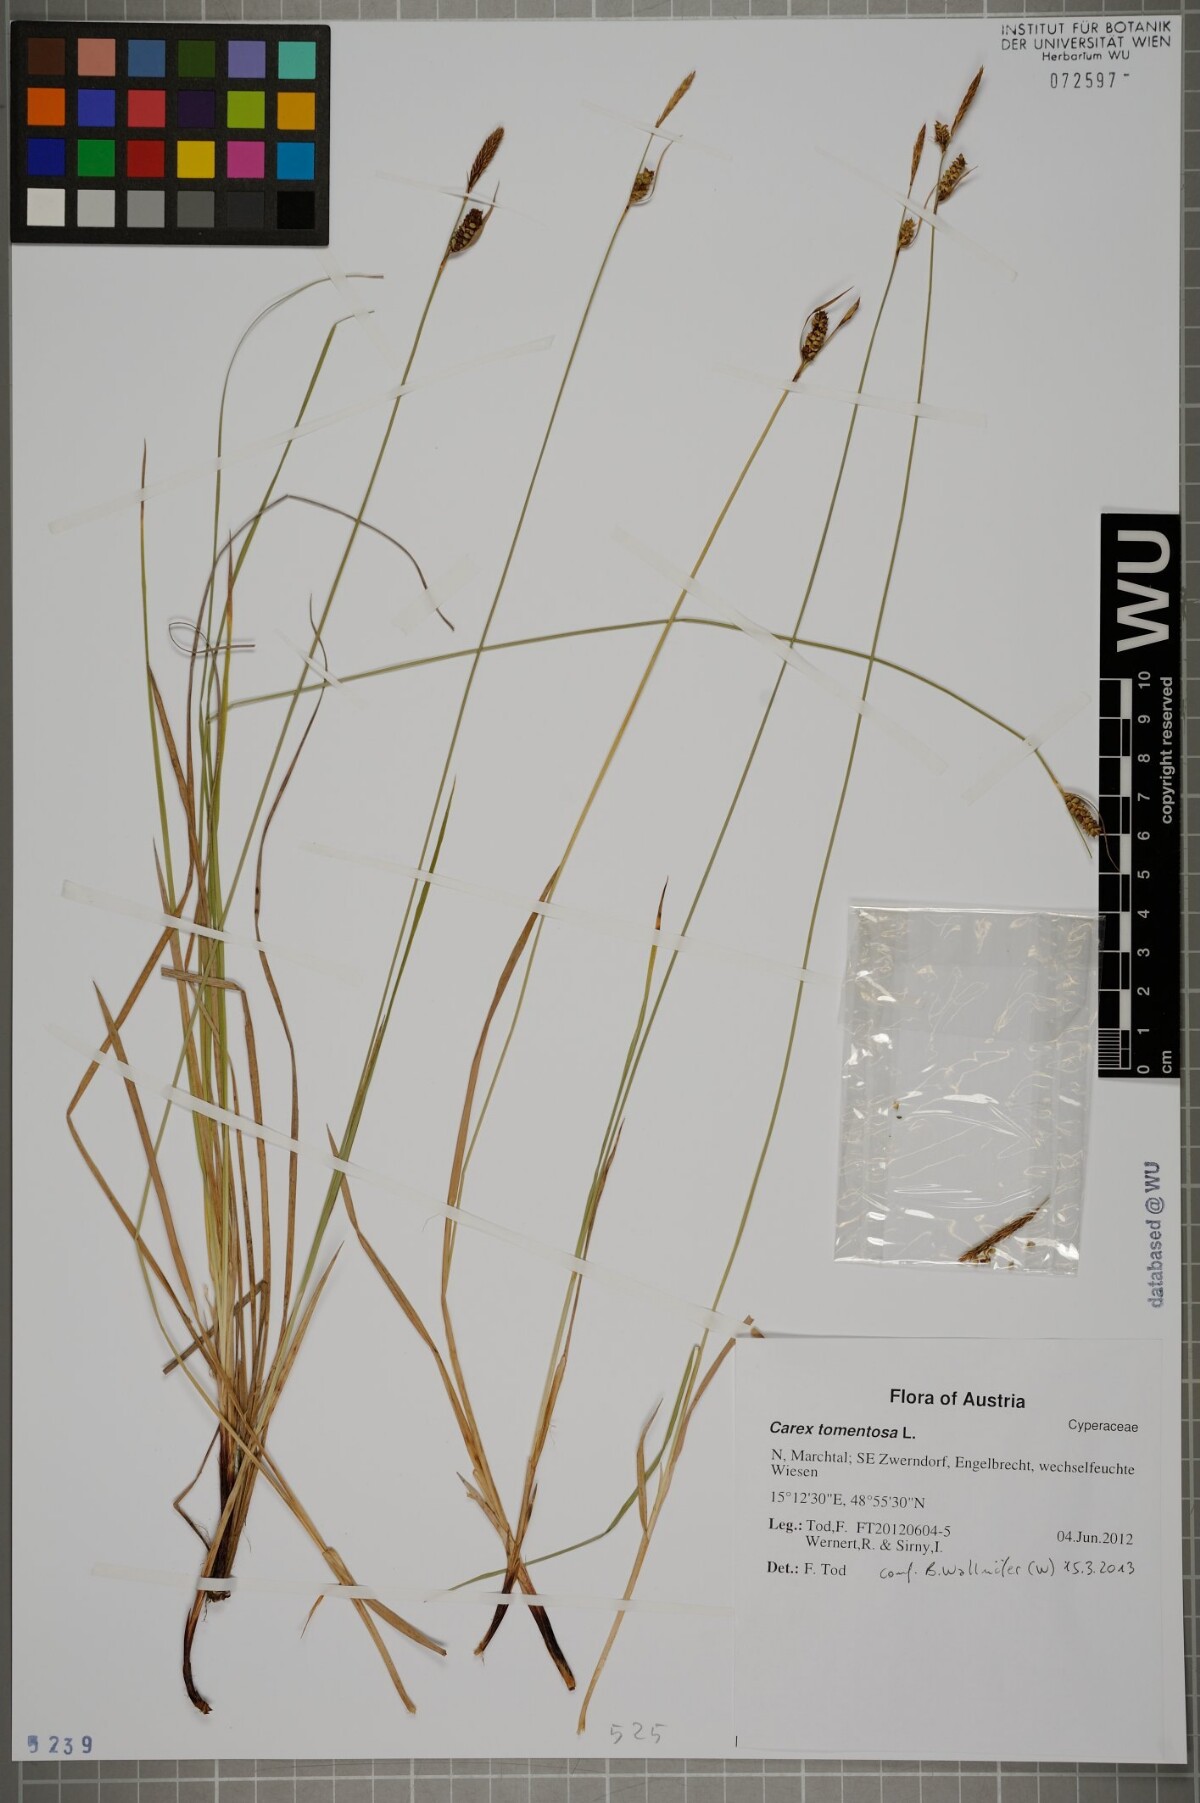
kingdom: Plantae
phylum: Tracheophyta
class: Liliopsida
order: Poales
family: Cyperaceae
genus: Carex
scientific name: Carex tomentosa
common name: Downy-fruited sedge
